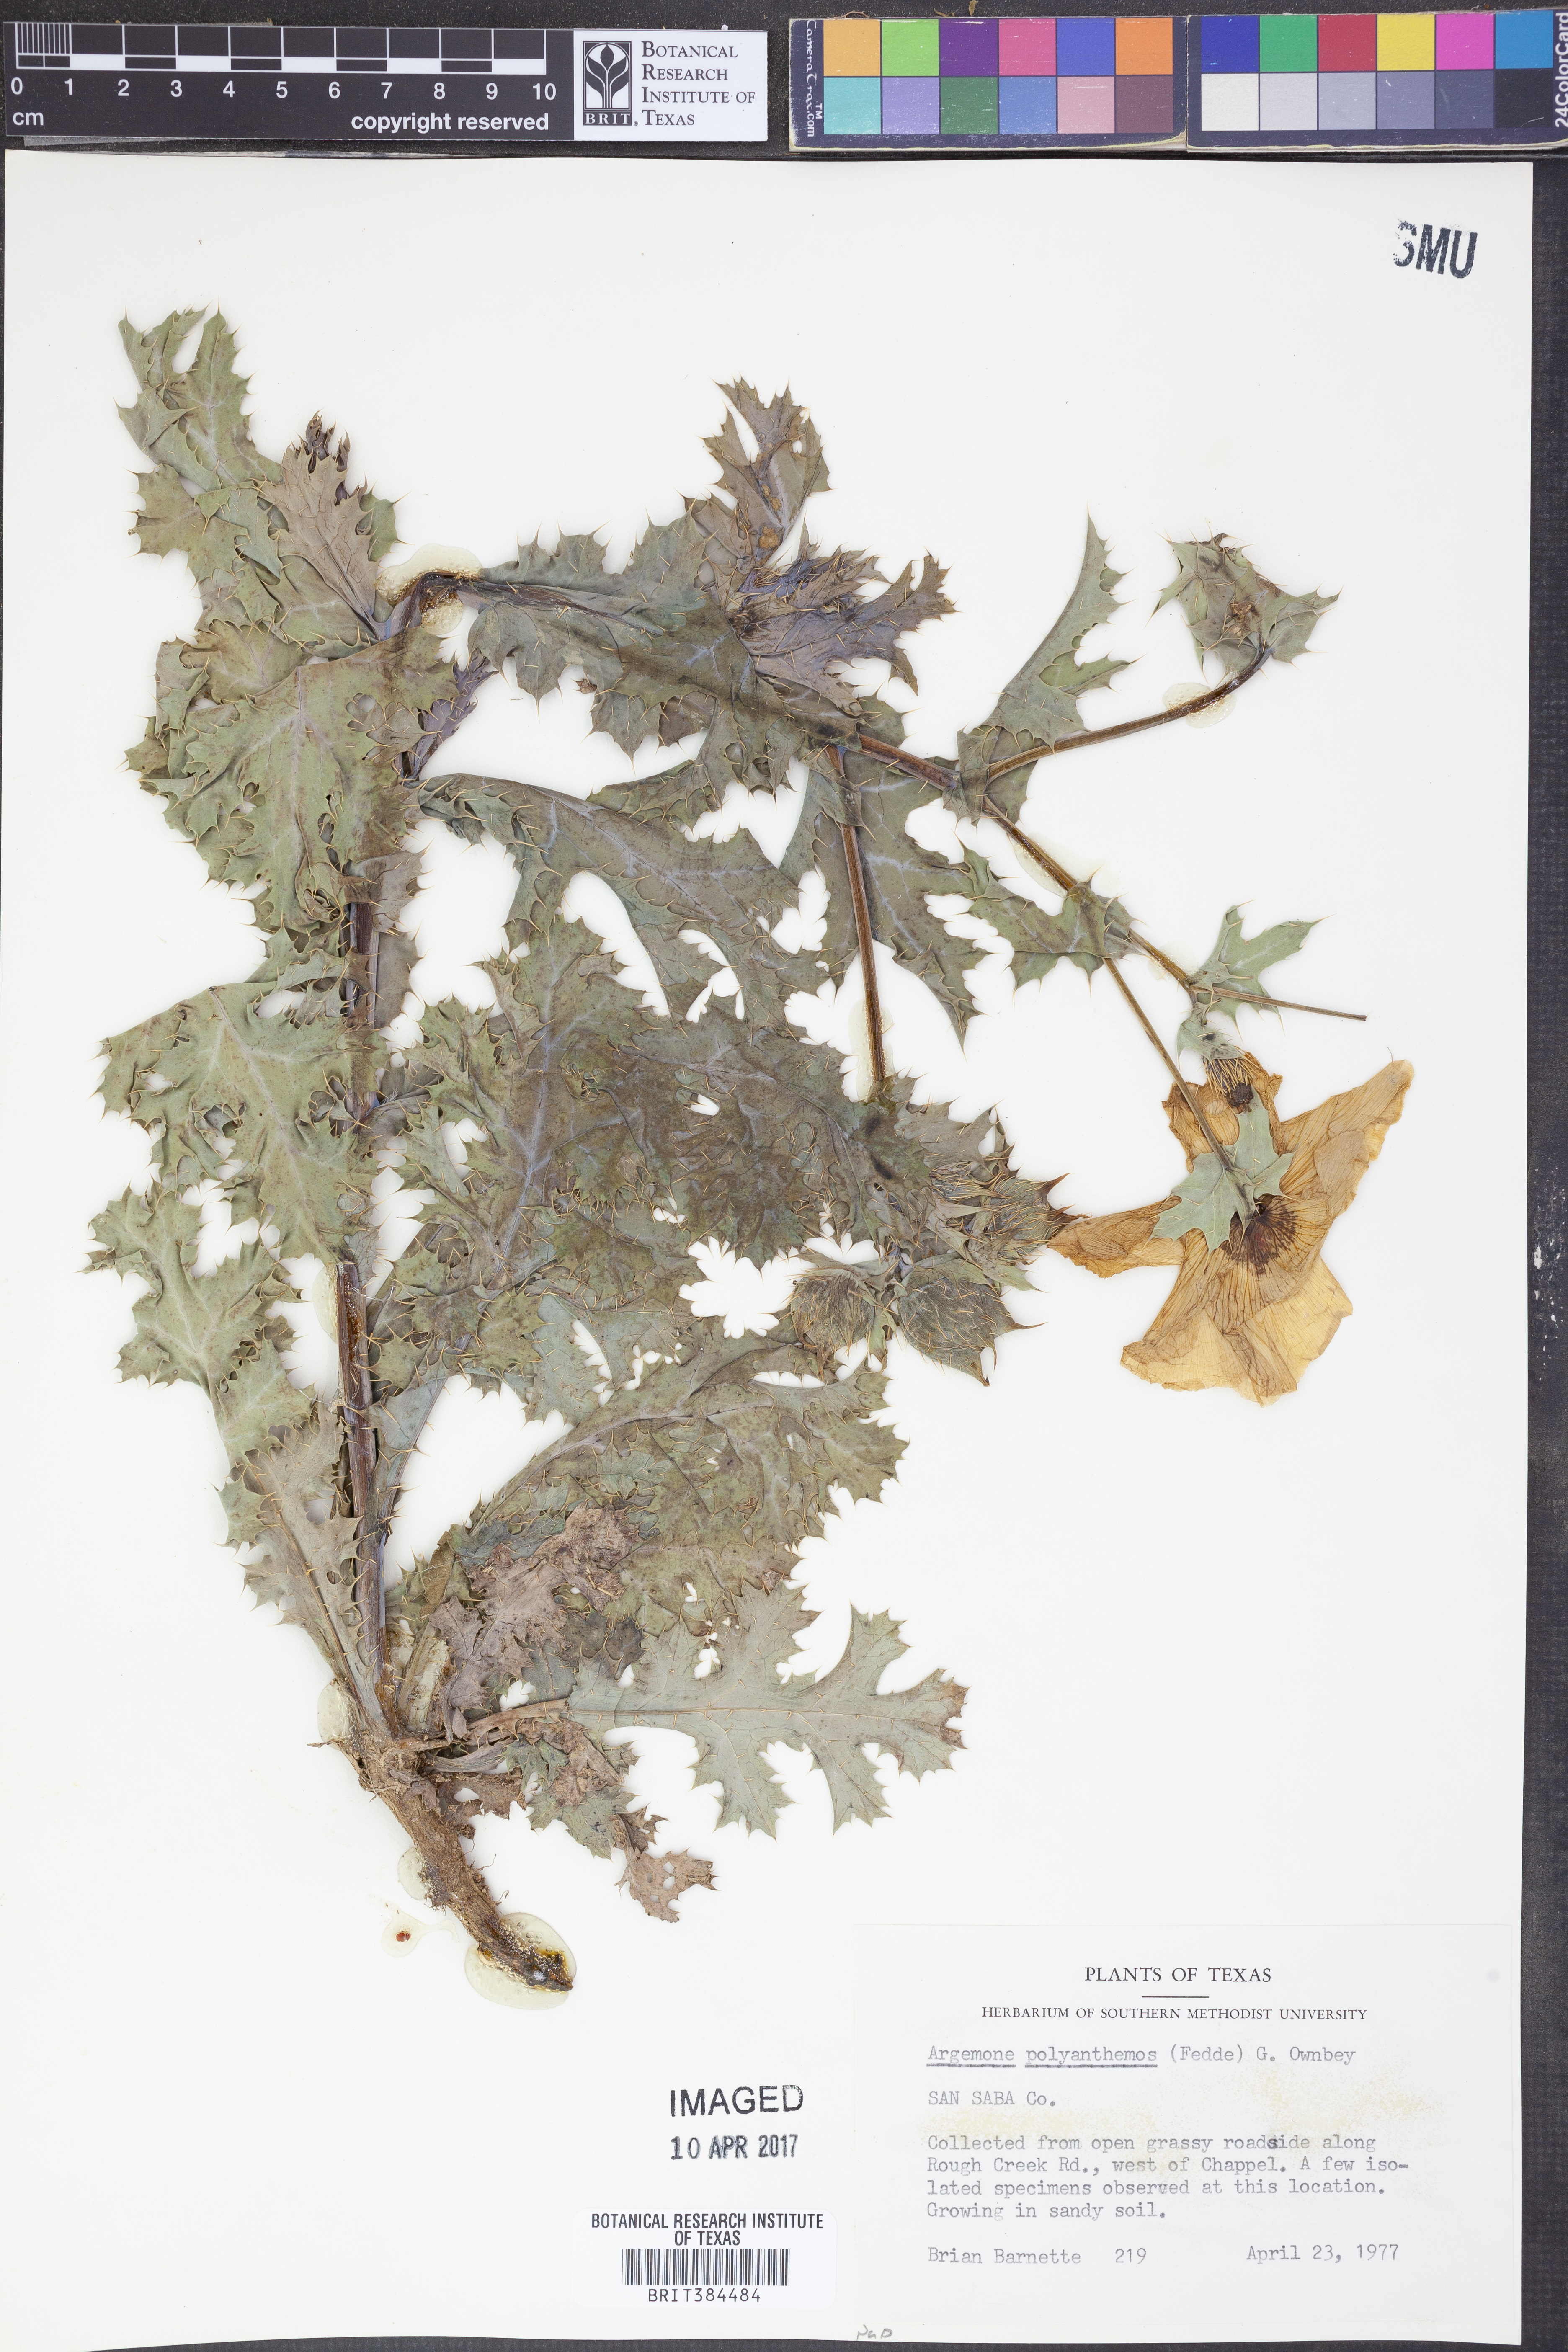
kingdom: Plantae
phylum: Tracheophyta
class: Magnoliopsida
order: Ranunculales
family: Papaveraceae
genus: Argemone
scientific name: Argemone polyanthemos
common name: Plains prickly-poppy
